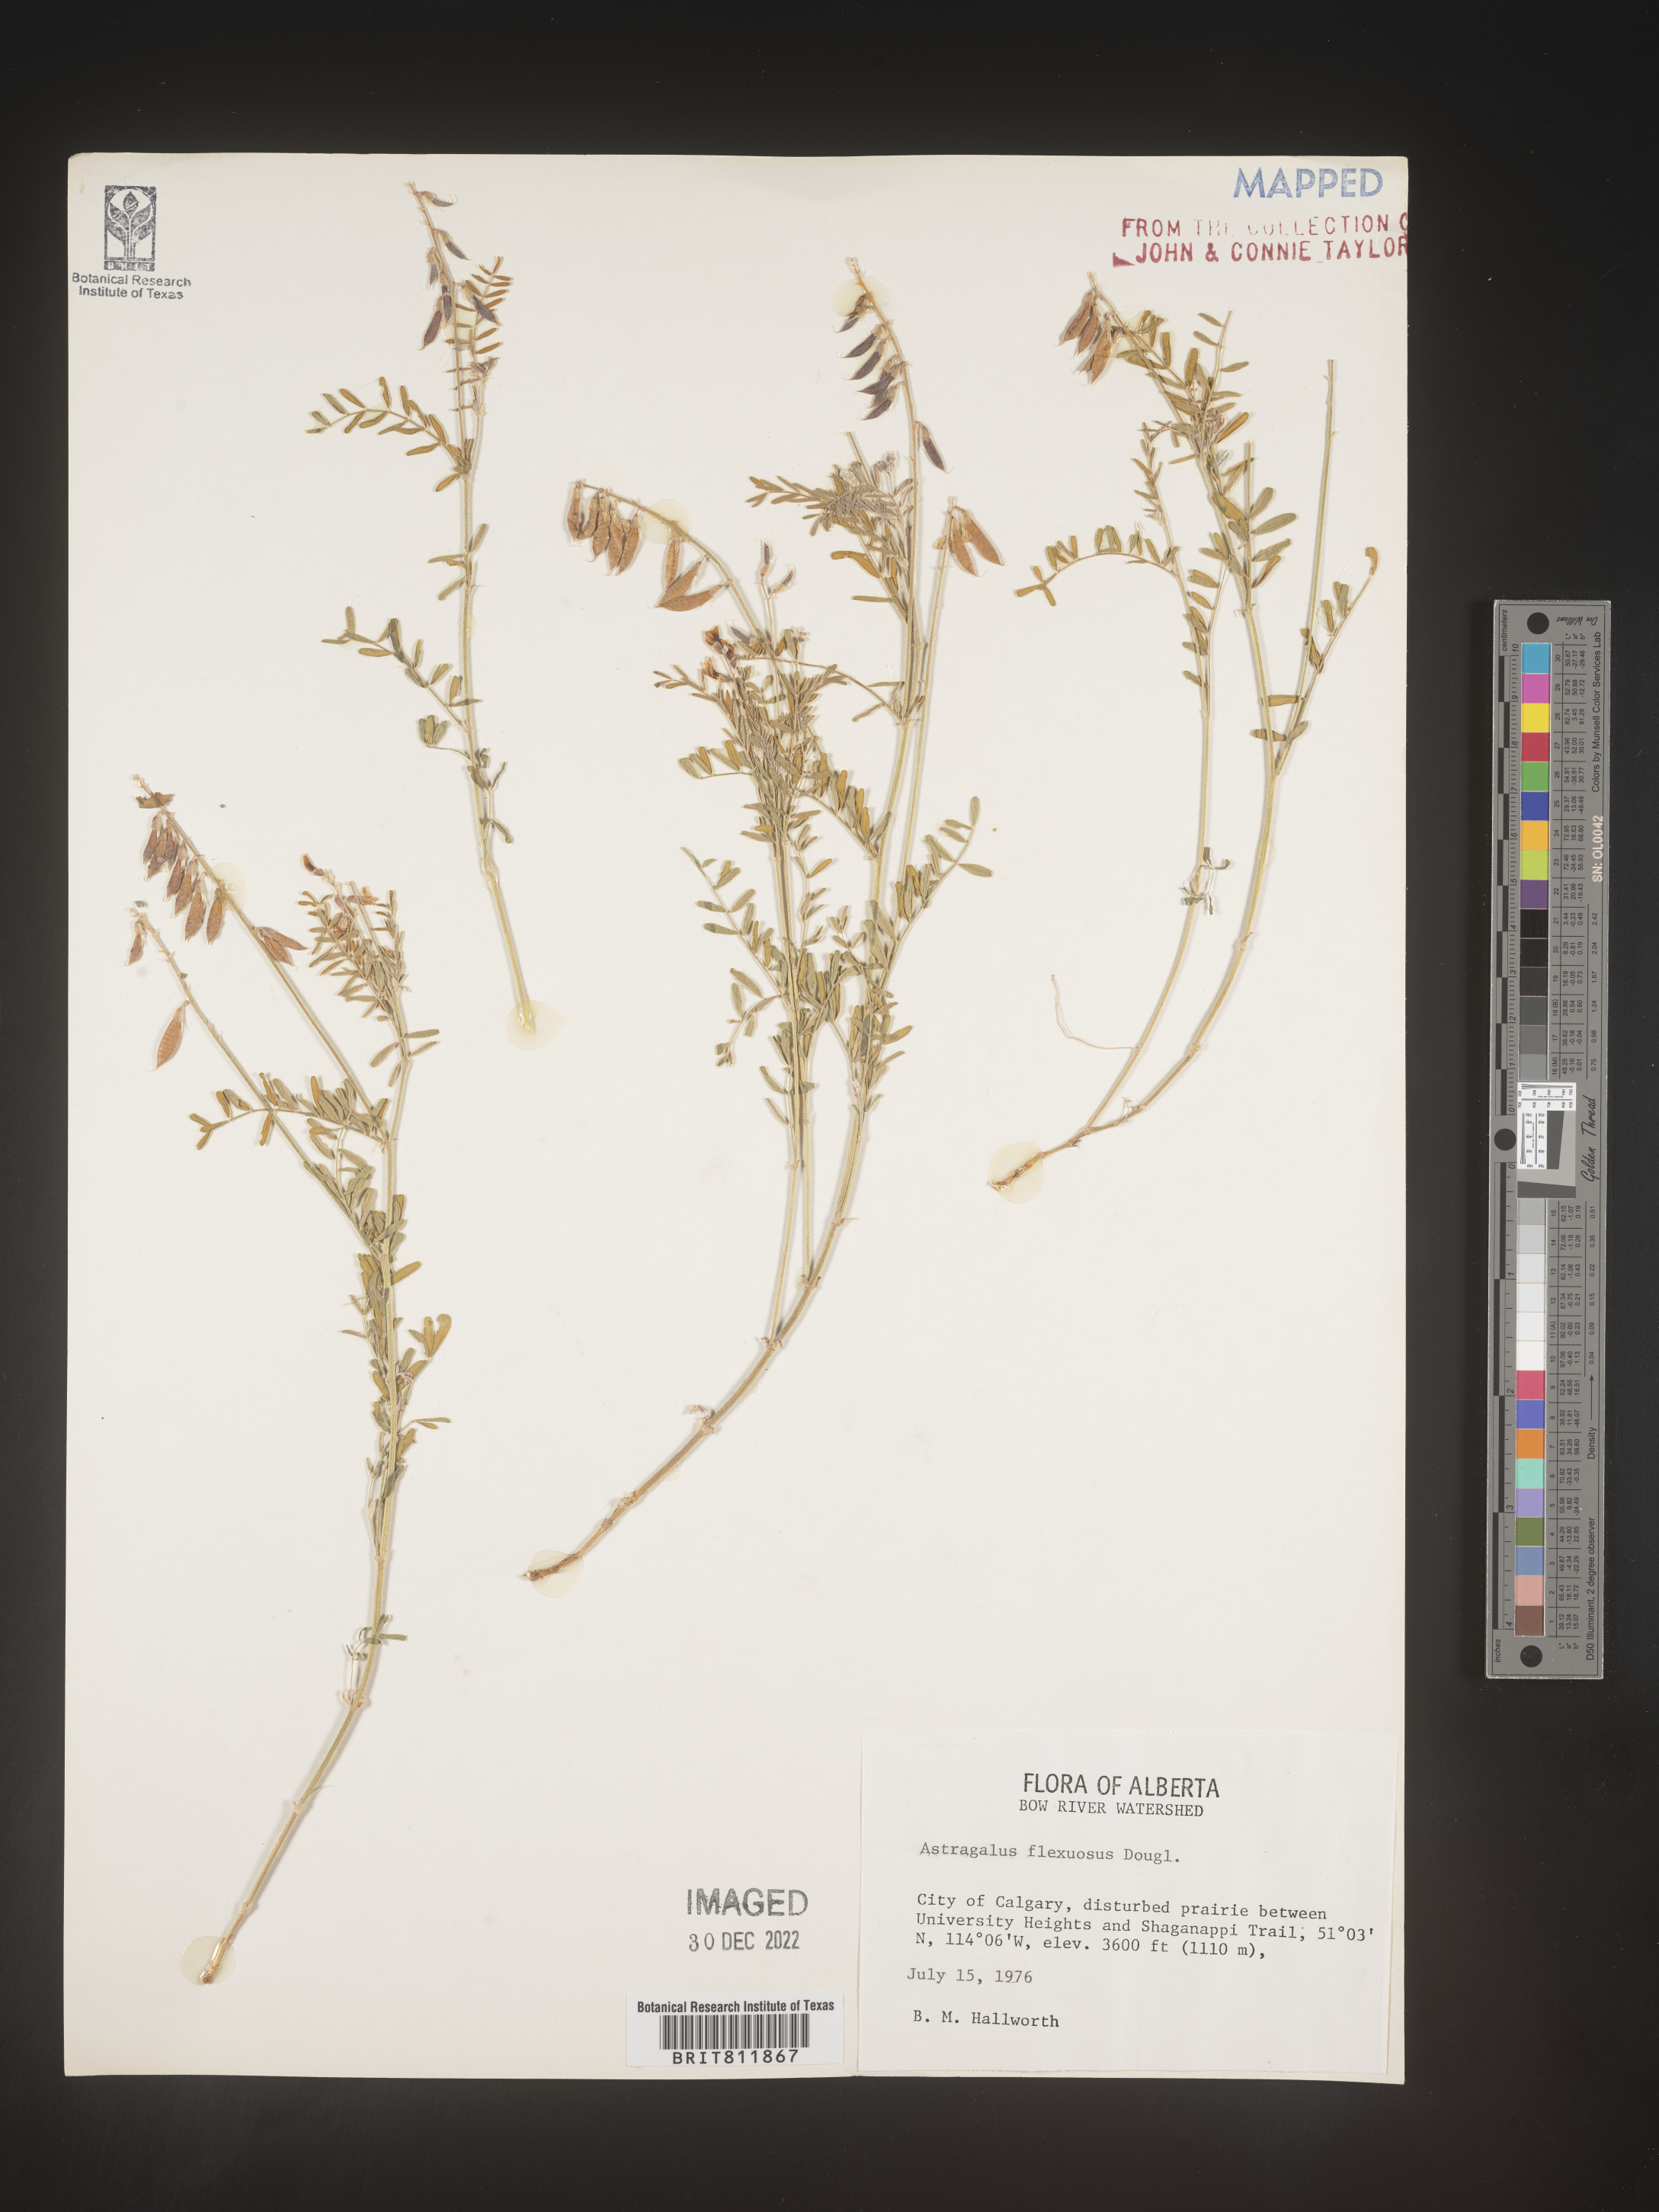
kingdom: Plantae
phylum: Tracheophyta
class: Magnoliopsida
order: Fabales
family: Fabaceae
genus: Astragalus
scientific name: Astragalus flexuosus
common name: Pliant milk-vetch
